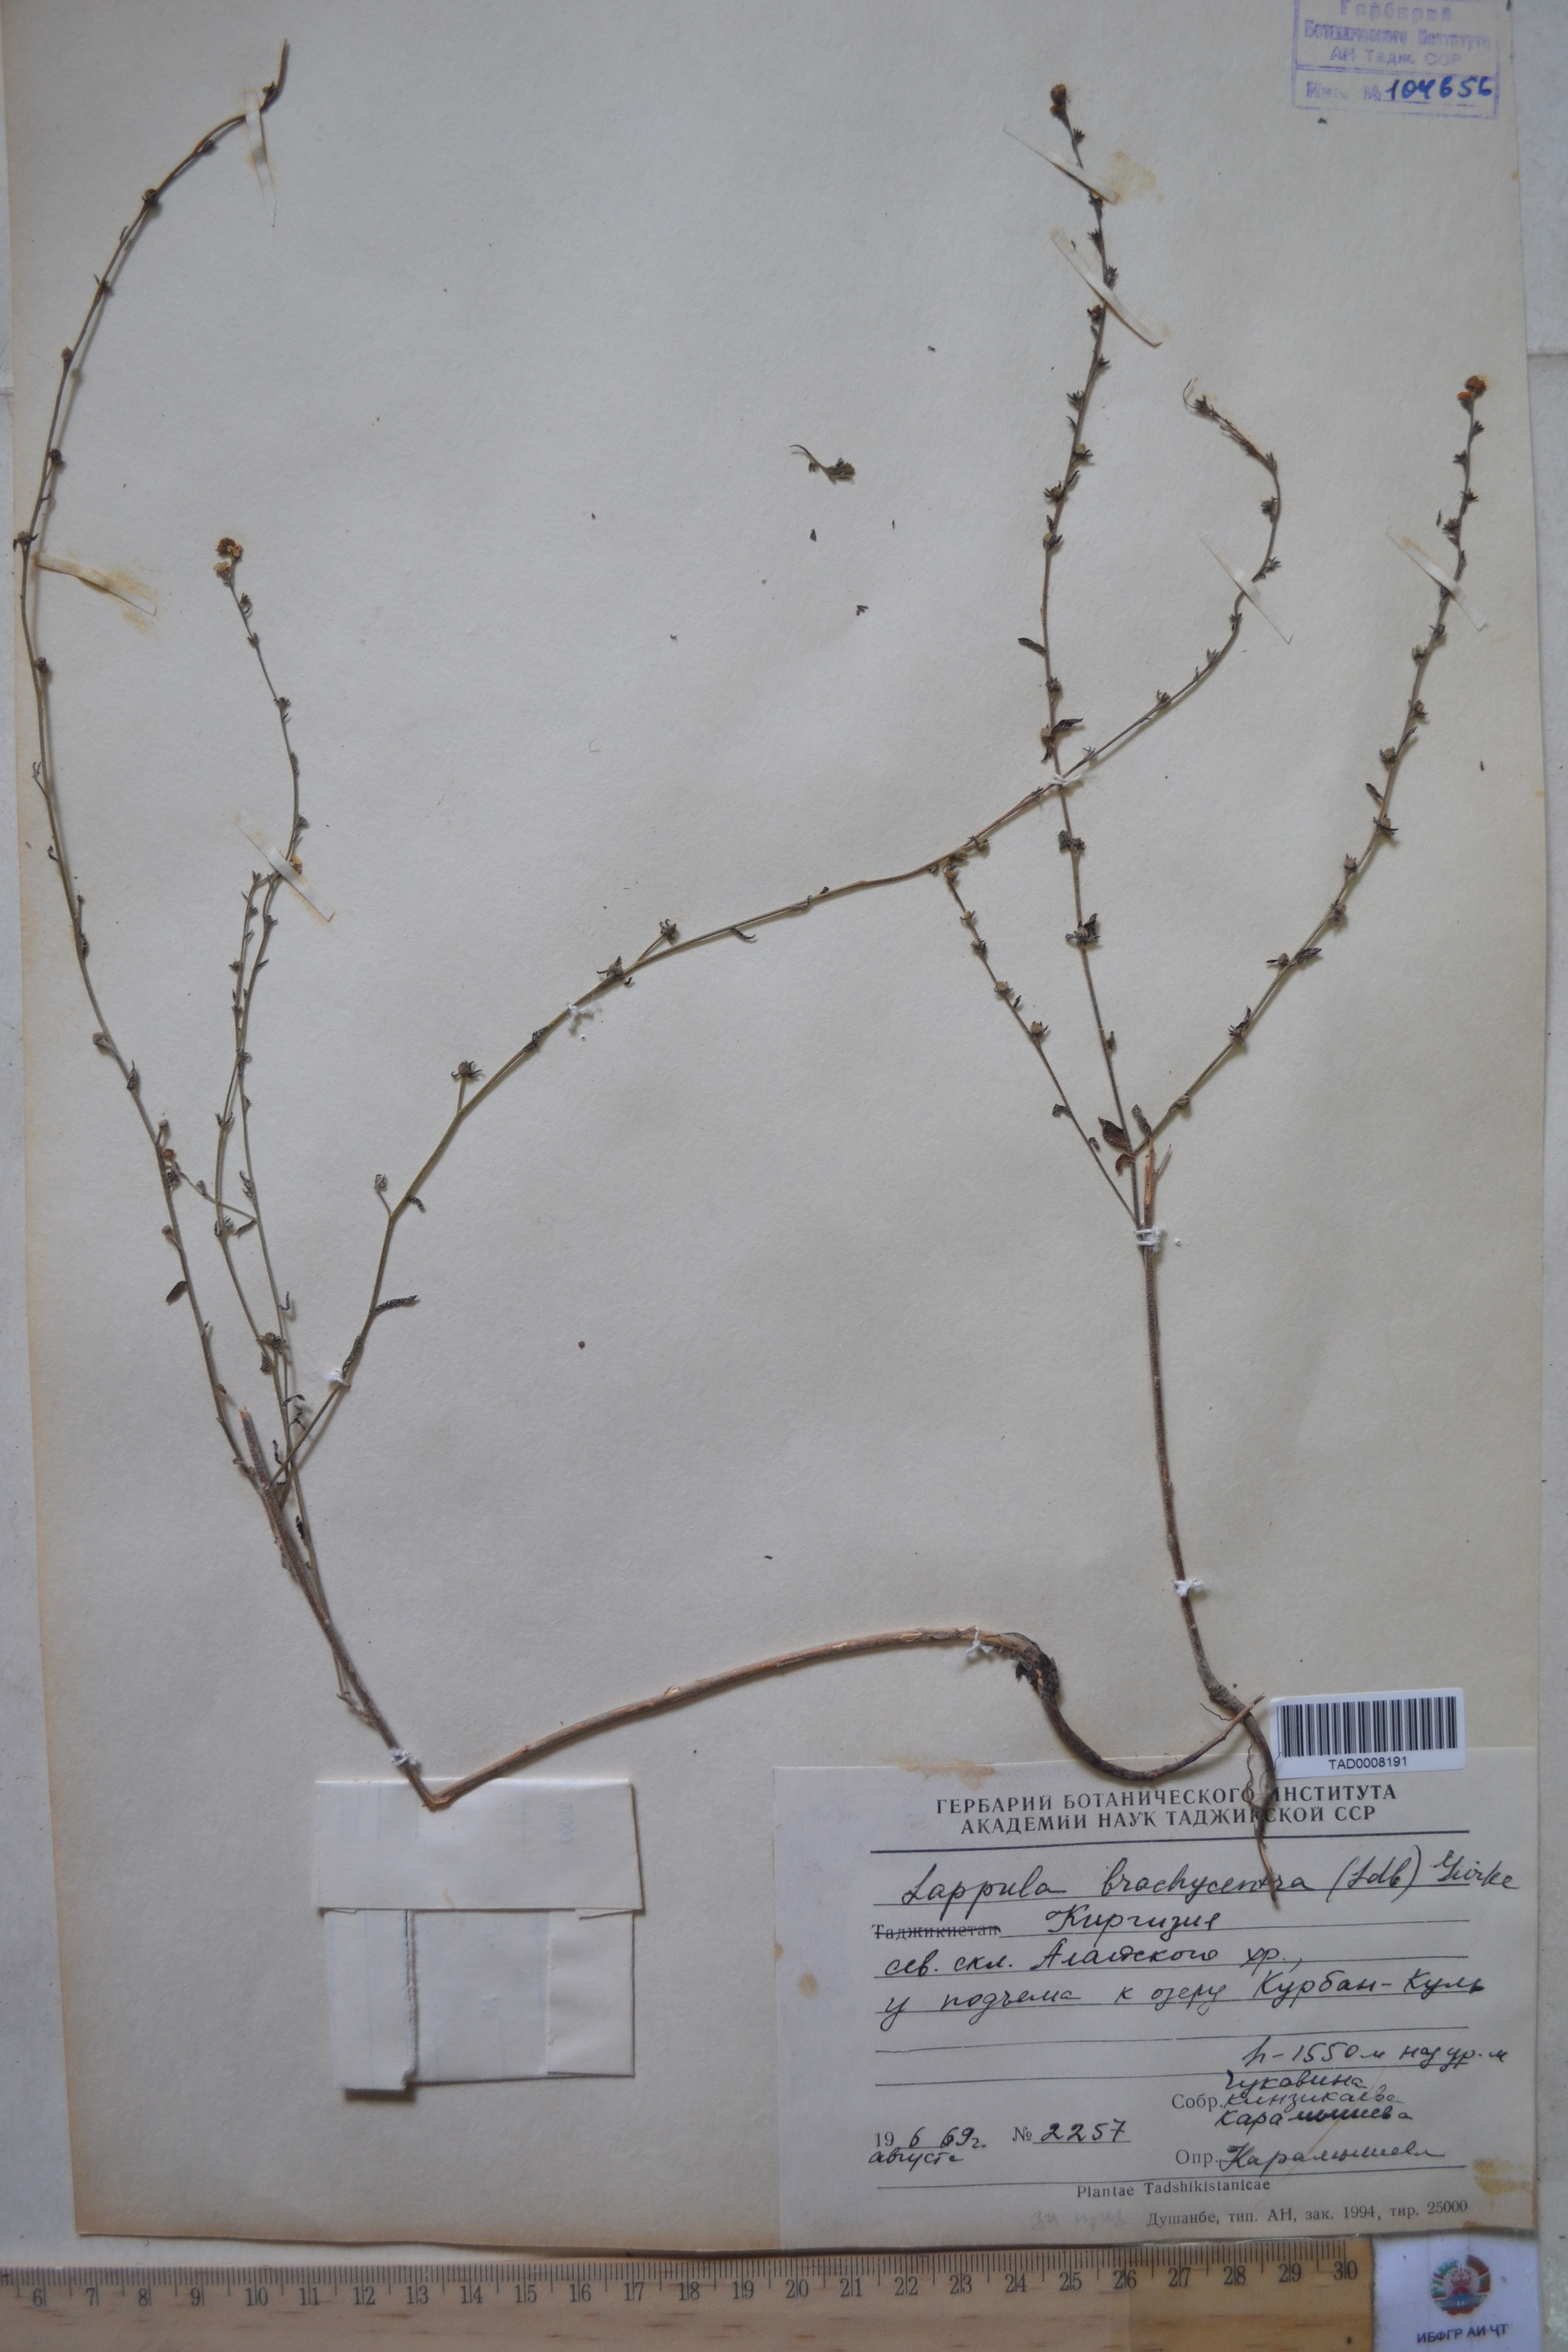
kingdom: Plantae
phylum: Tracheophyta
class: Magnoliopsida
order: Boraginales
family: Boraginaceae
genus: Lappula
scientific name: Lappula brachycentra
